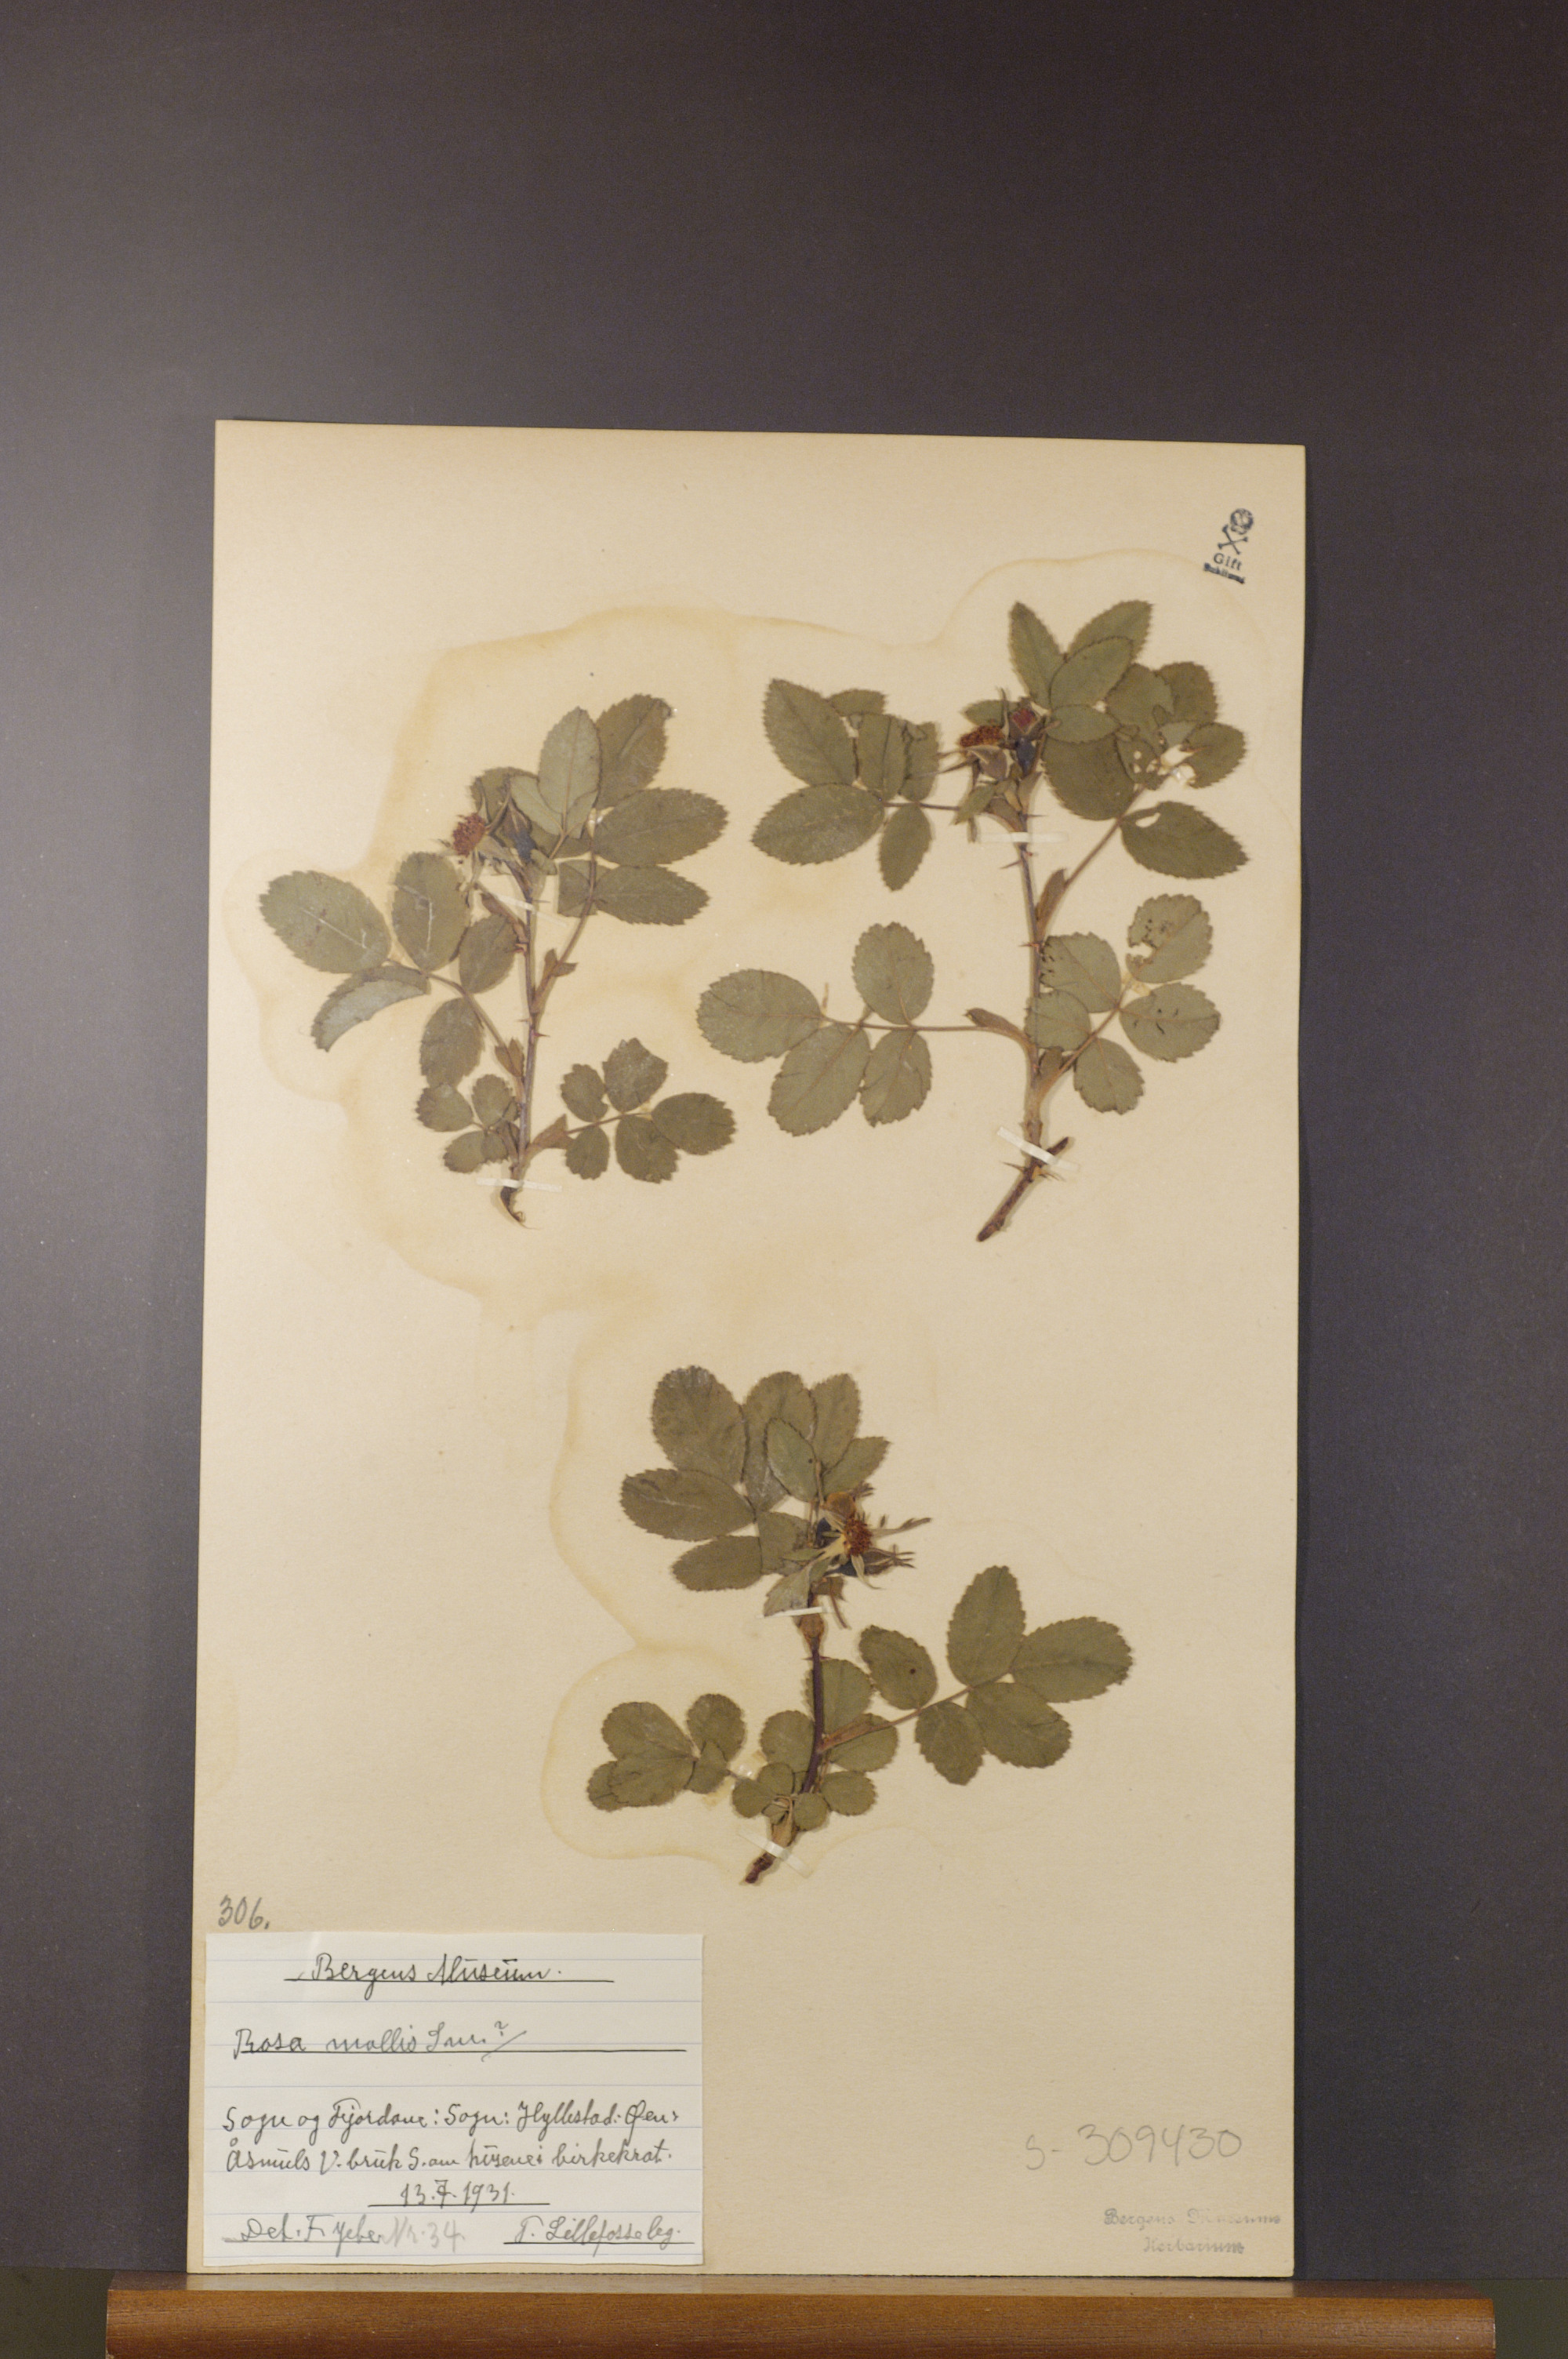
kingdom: Plantae
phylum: Tracheophyta
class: Magnoliopsida
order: Rosales
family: Rosaceae
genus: Rosa
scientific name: Rosa mollis
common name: Rose
